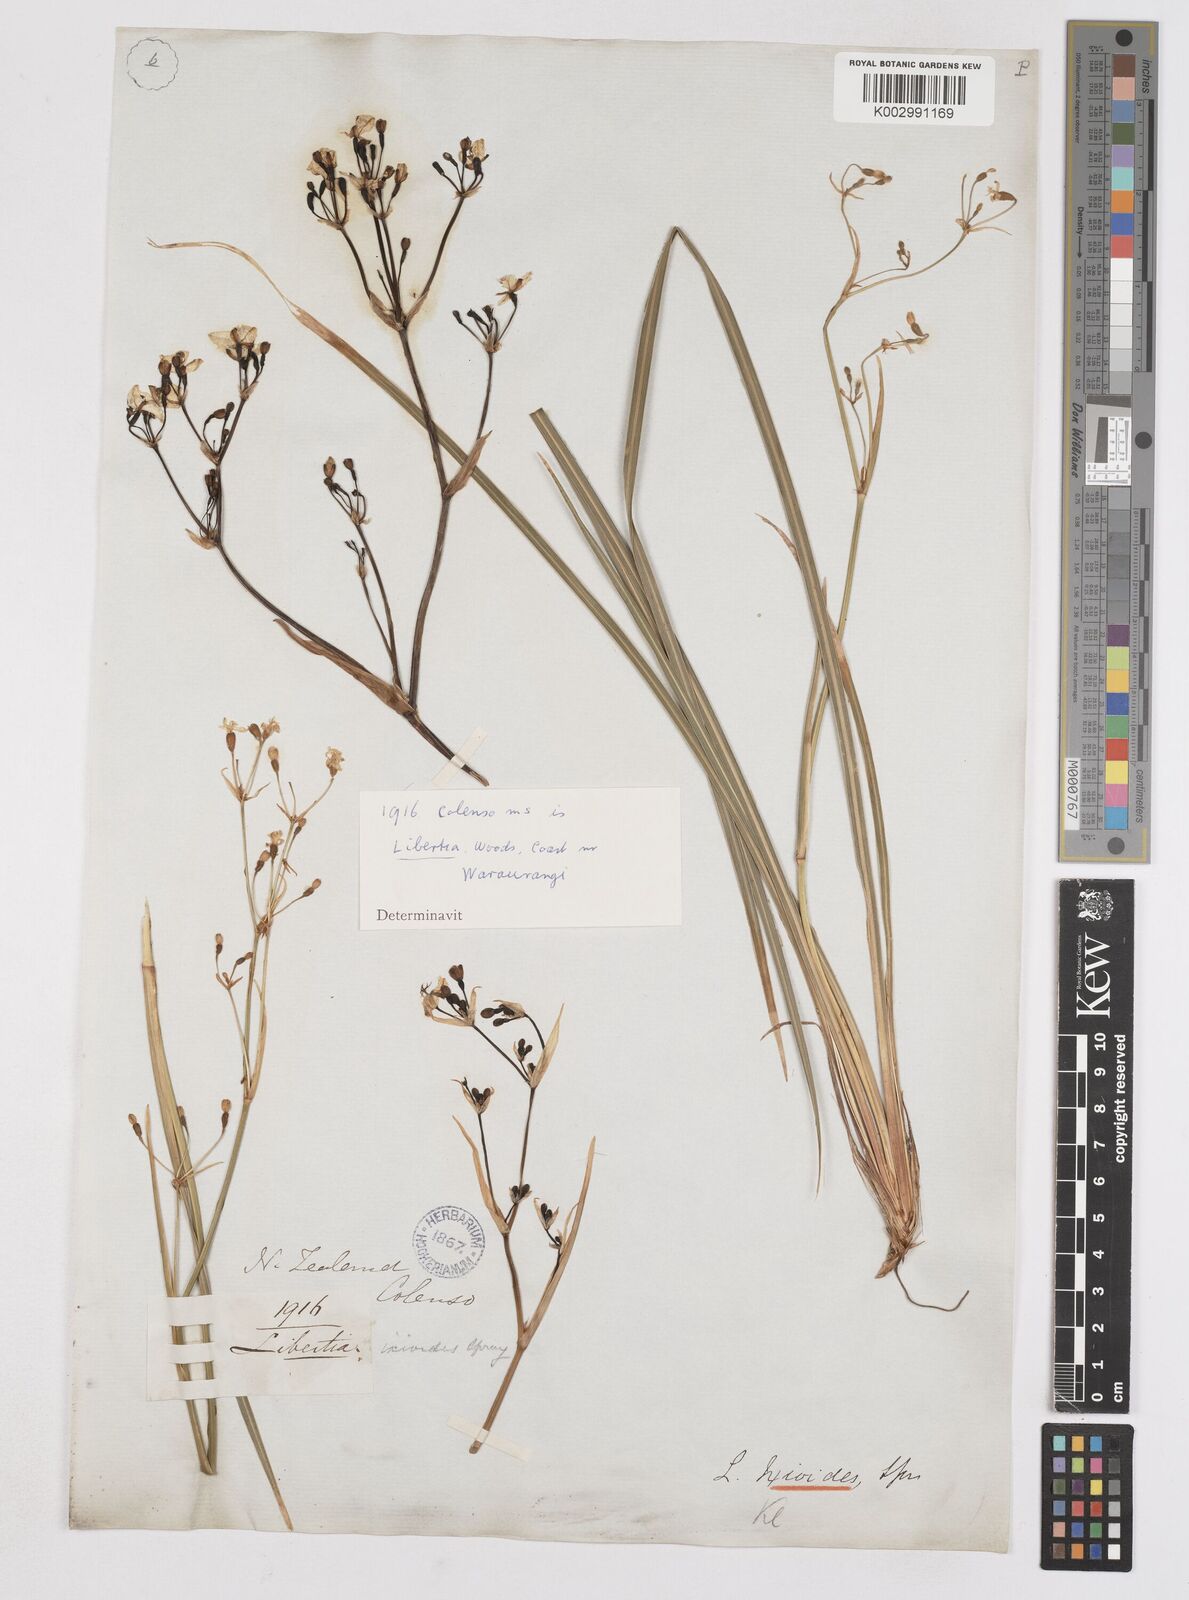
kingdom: Plantae
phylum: Tracheophyta
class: Liliopsida
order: Asparagales
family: Iridaceae
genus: Libertia
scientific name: Libertia
